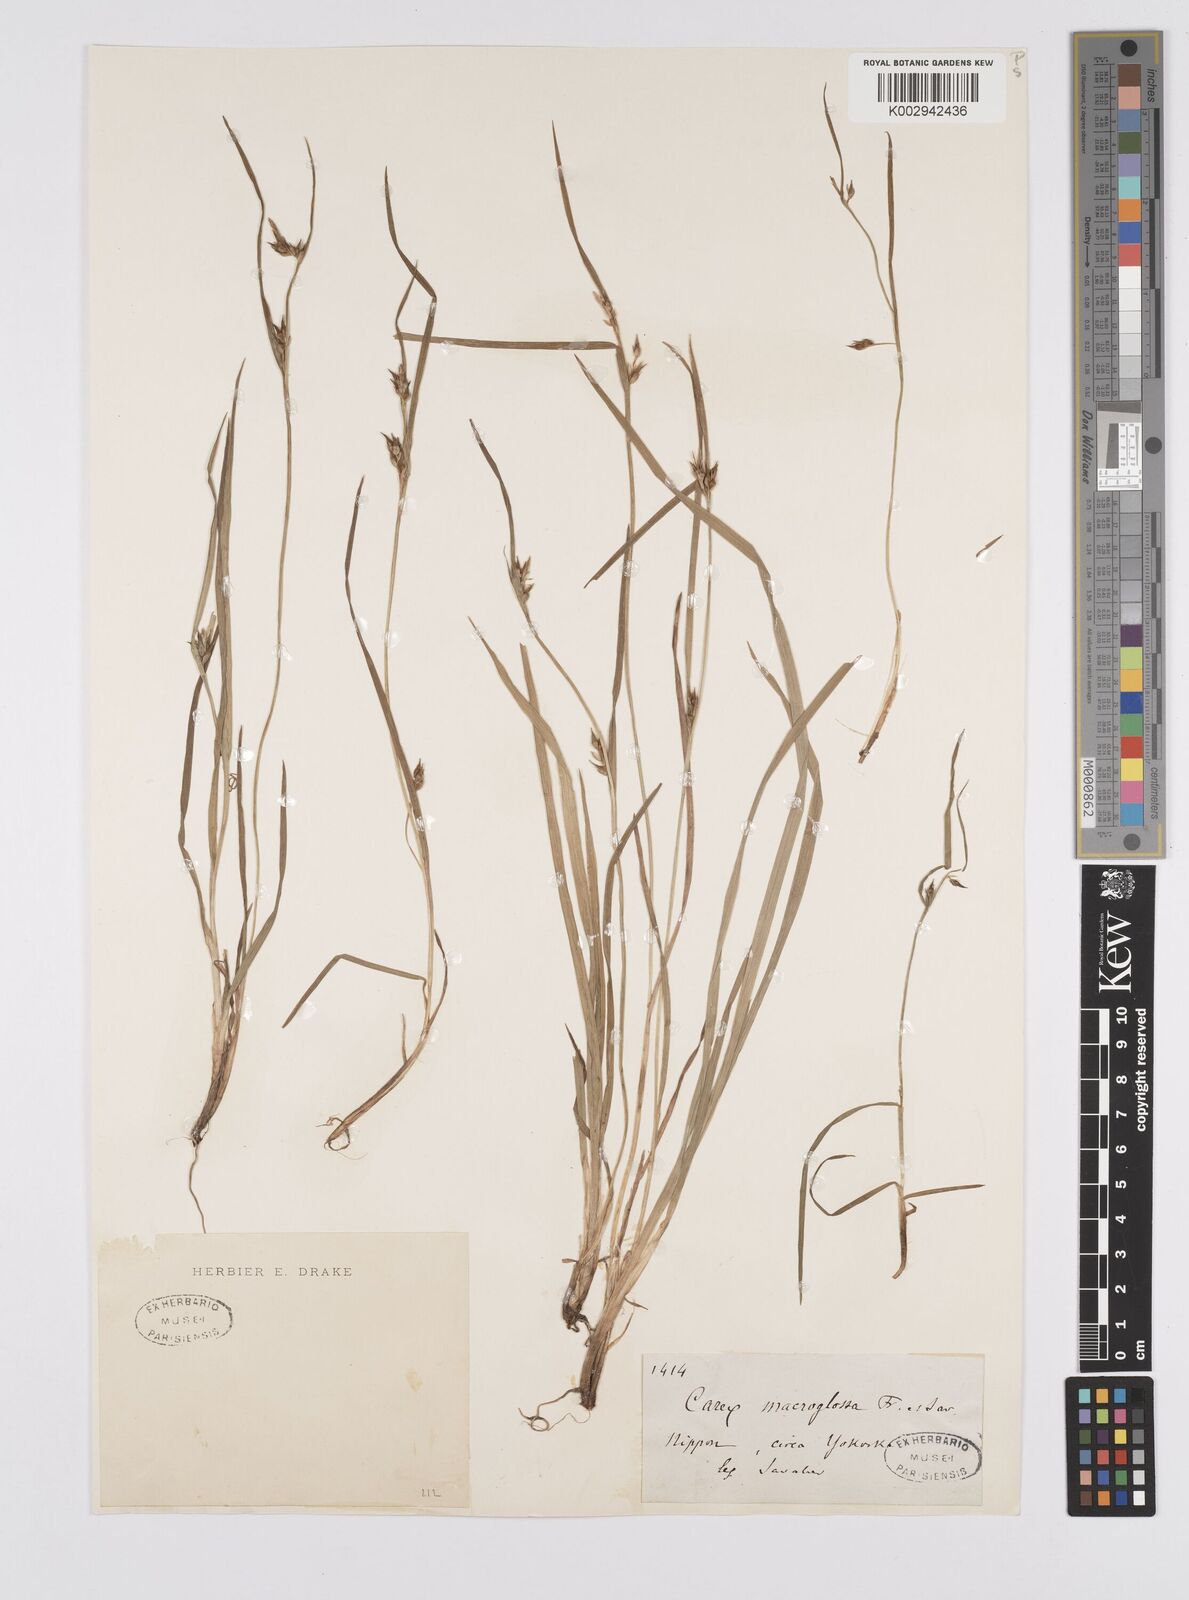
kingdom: Plantae
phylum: Tracheophyta
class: Liliopsida
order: Poales
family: Cyperaceae
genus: Carex
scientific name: Carex jackiana
